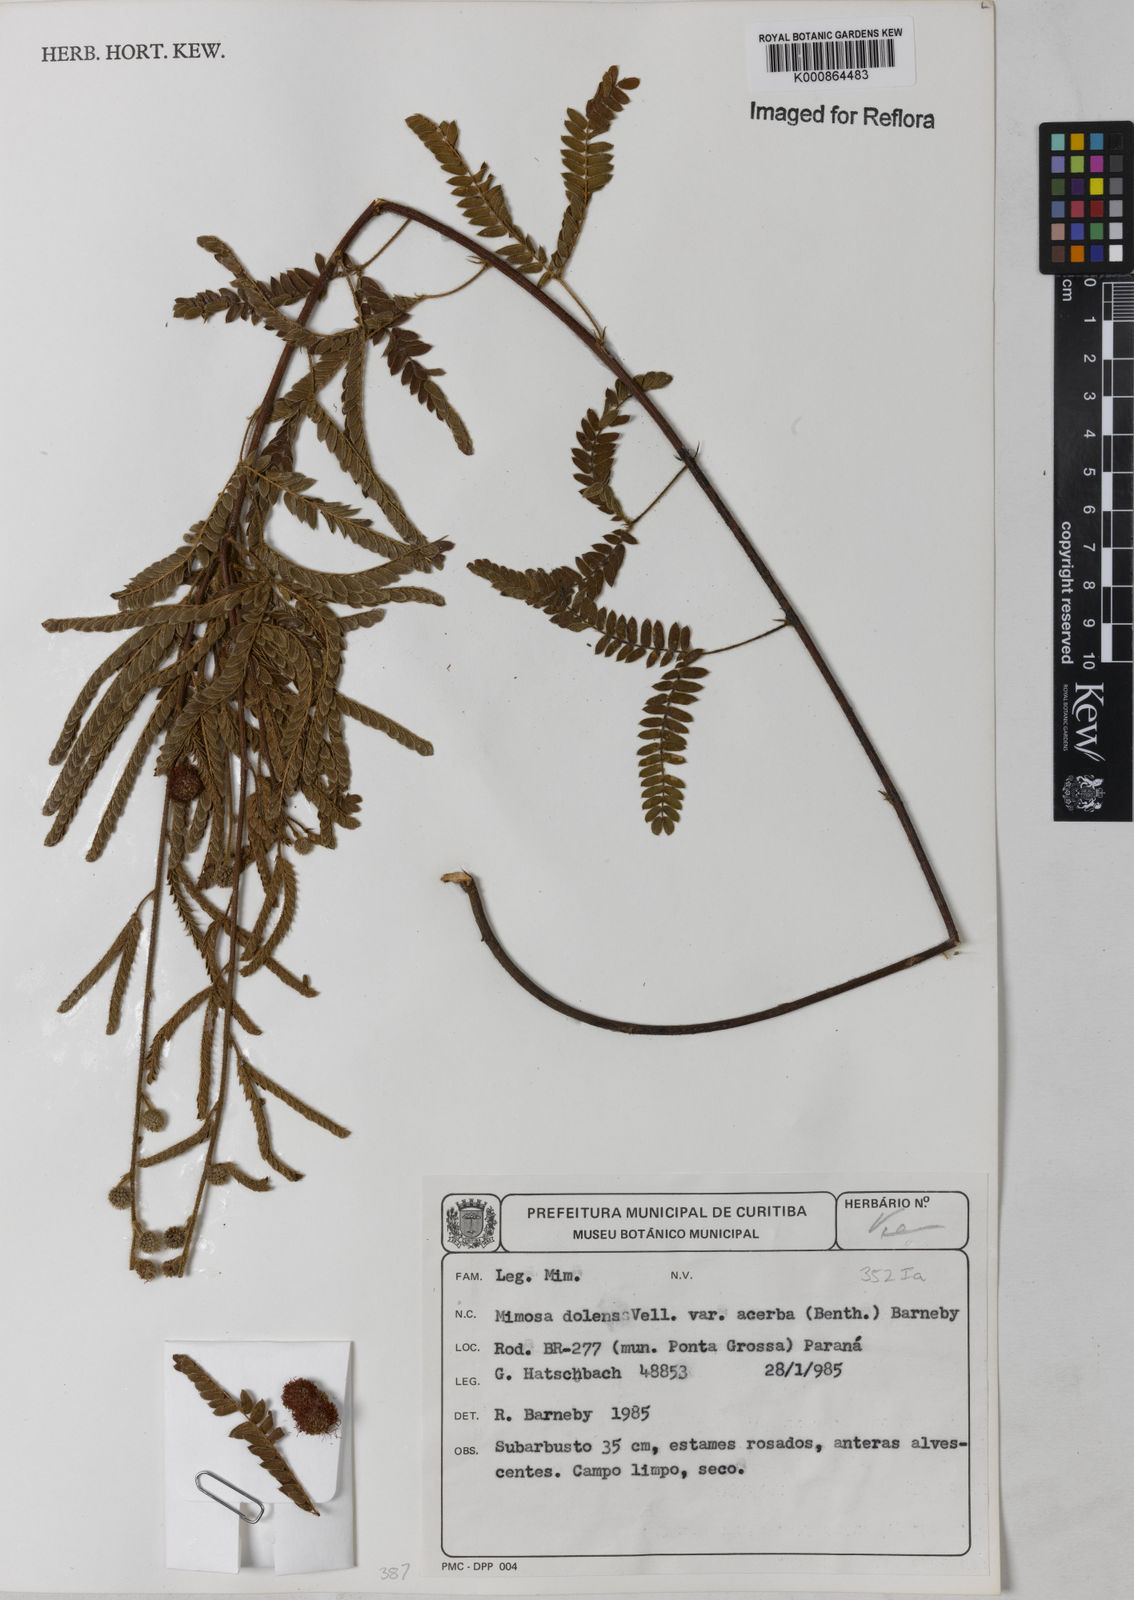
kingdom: Plantae
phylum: Tracheophyta
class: Magnoliopsida
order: Fabales
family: Fabaceae
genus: Mimosa
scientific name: Mimosa dolens
